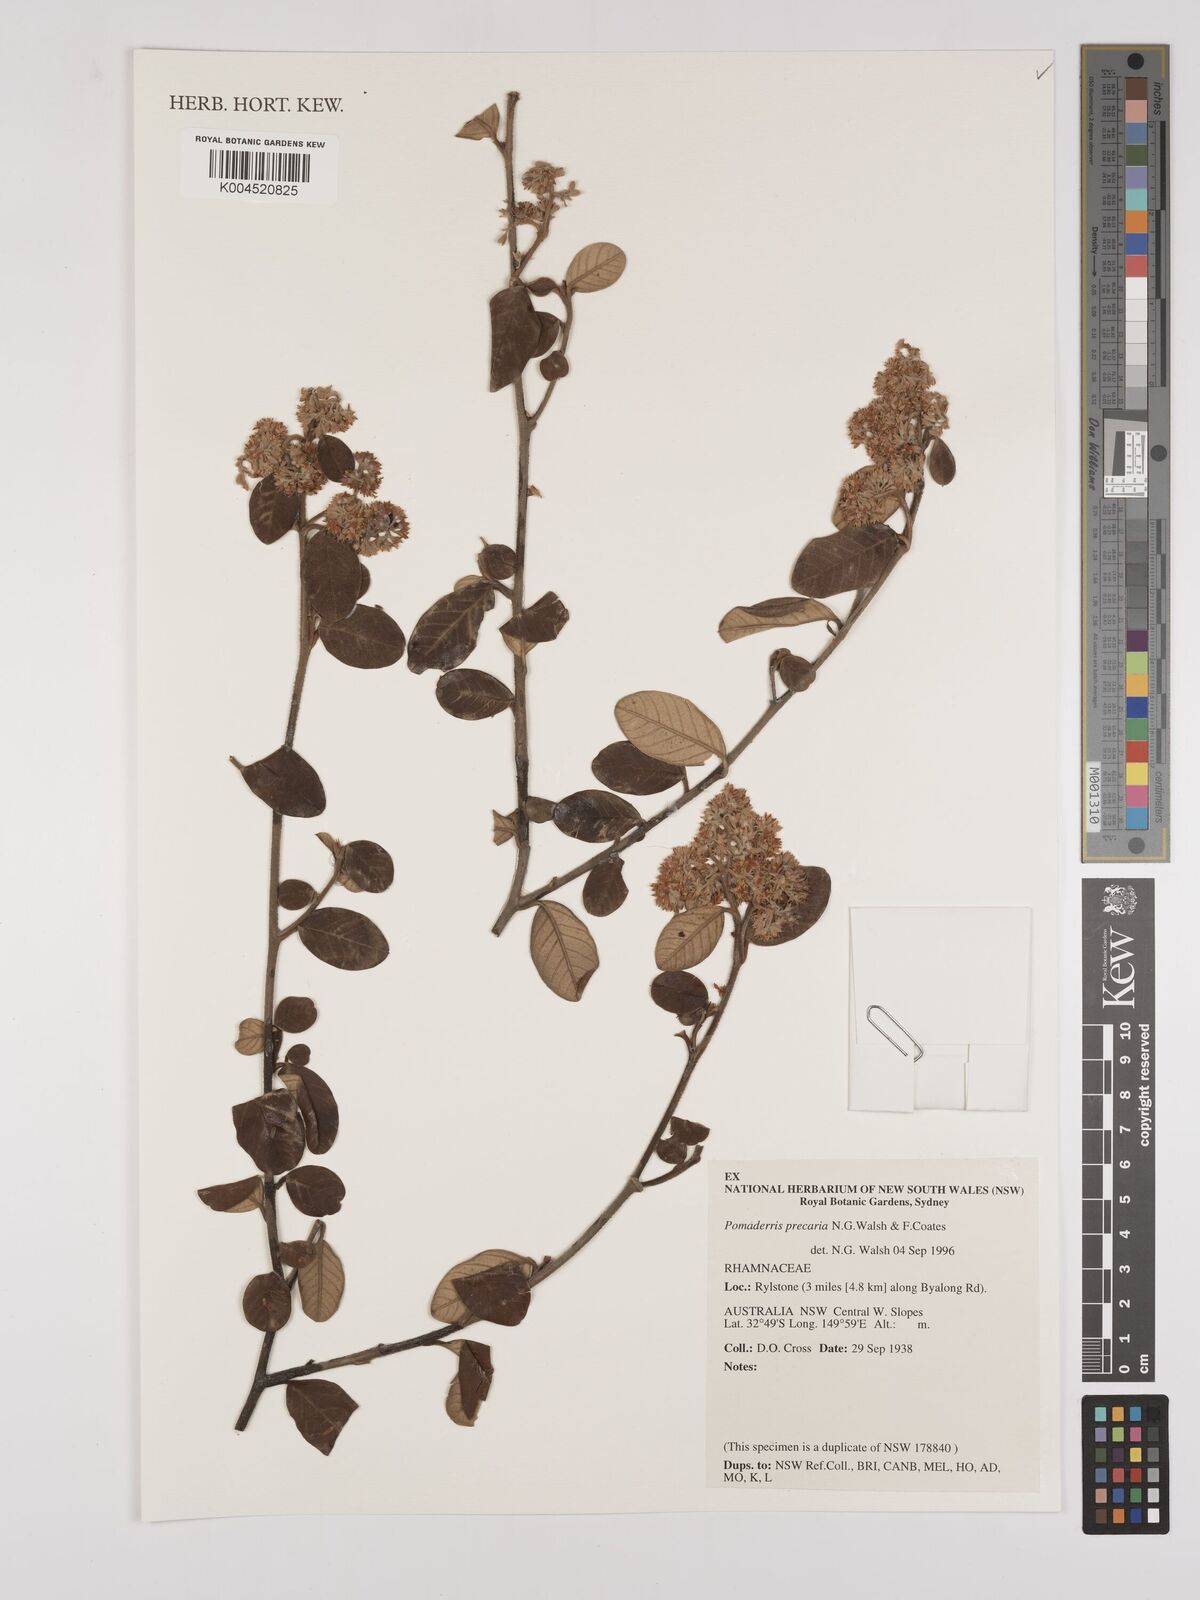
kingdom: Plantae
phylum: Tracheophyta
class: Magnoliopsida
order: Rosales
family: Rhamnaceae
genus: Pomaderris
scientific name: Pomaderris precaria
